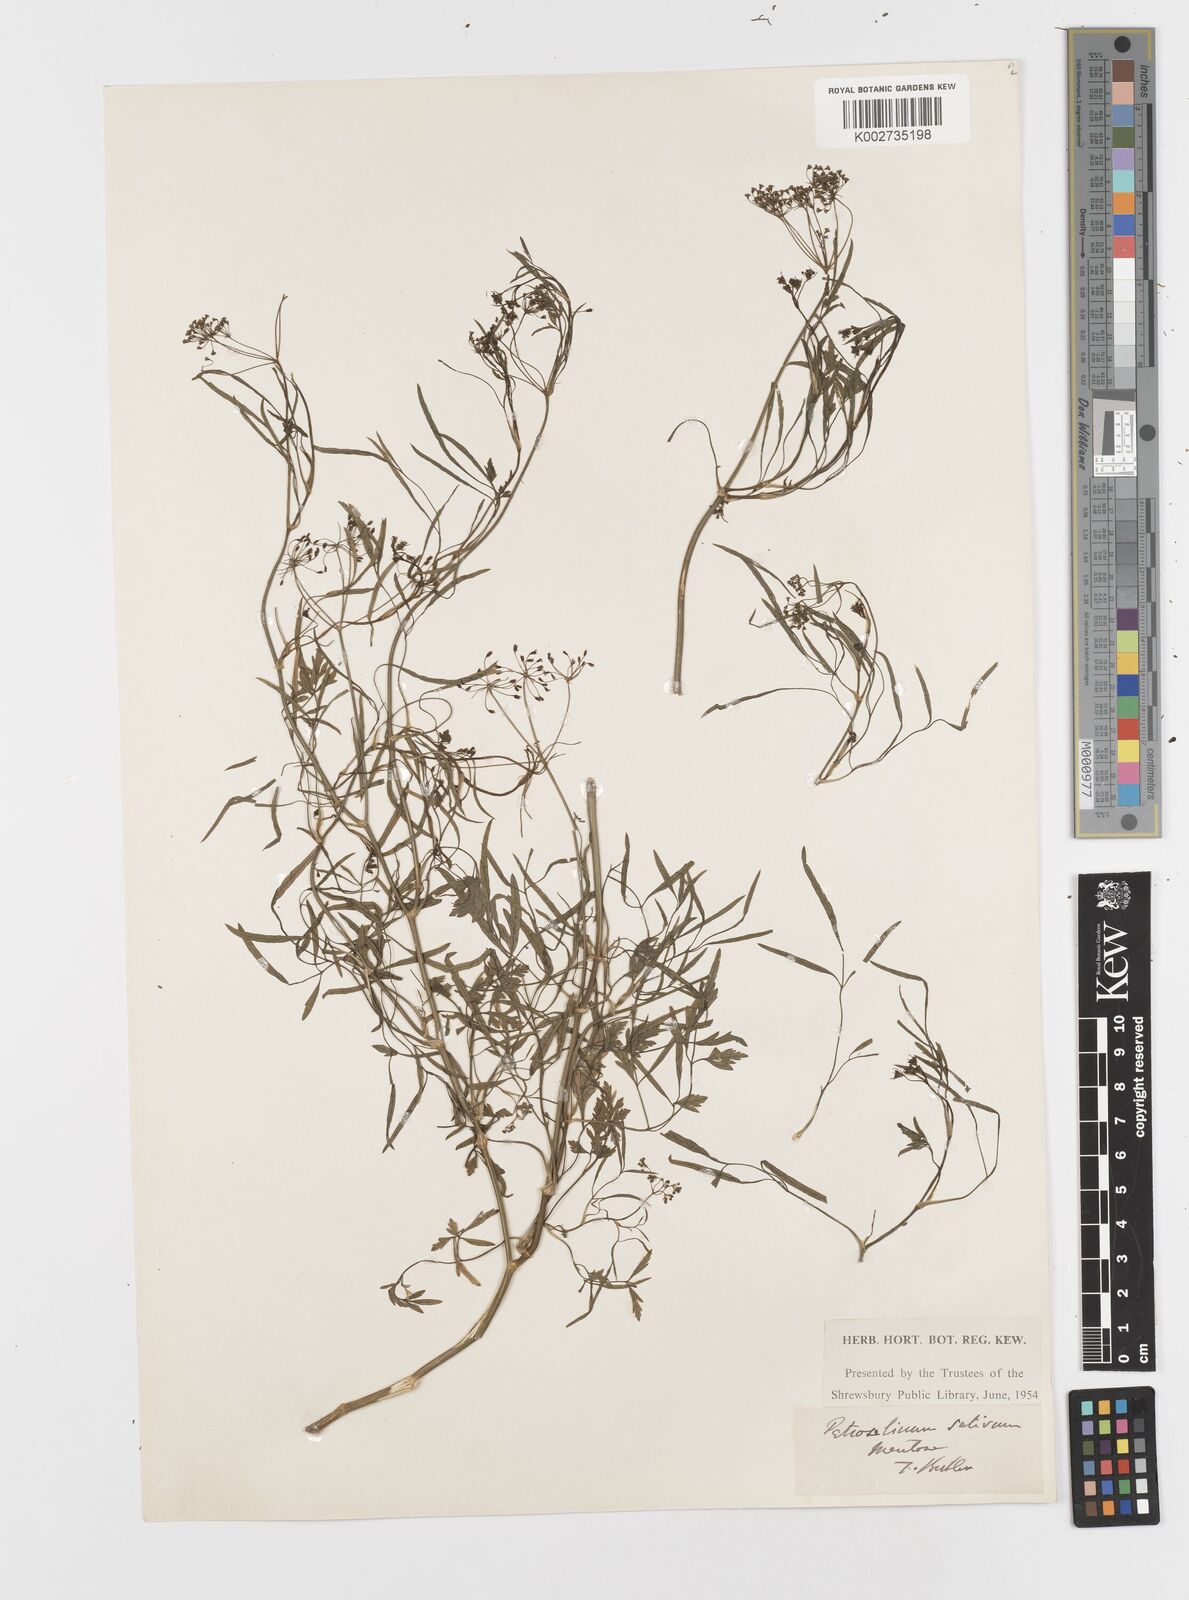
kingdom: Plantae
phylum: Tracheophyta
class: Magnoliopsida
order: Apiales
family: Apiaceae
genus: Petroselinum
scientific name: Petroselinum crispum
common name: Parsley
